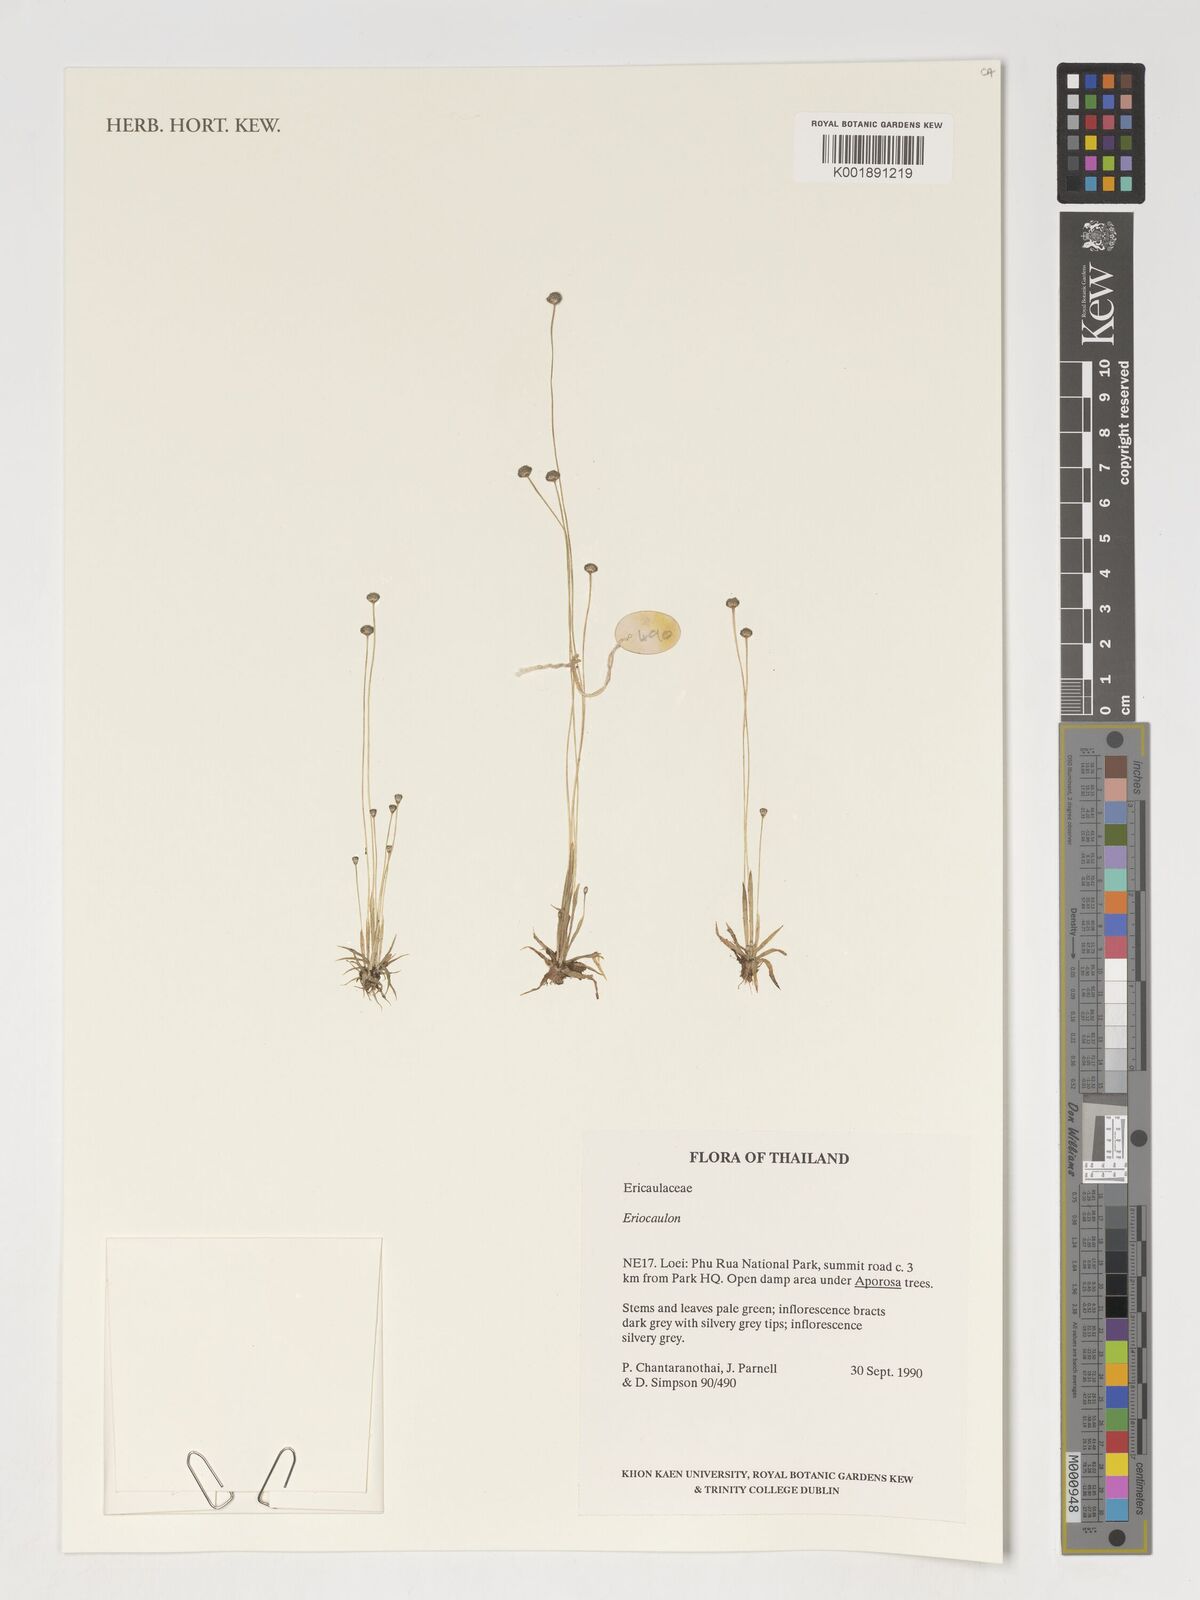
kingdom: Plantae
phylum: Tracheophyta
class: Liliopsida
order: Poales
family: Eriocaulaceae
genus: Eriocaulon
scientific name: Eriocaulon
